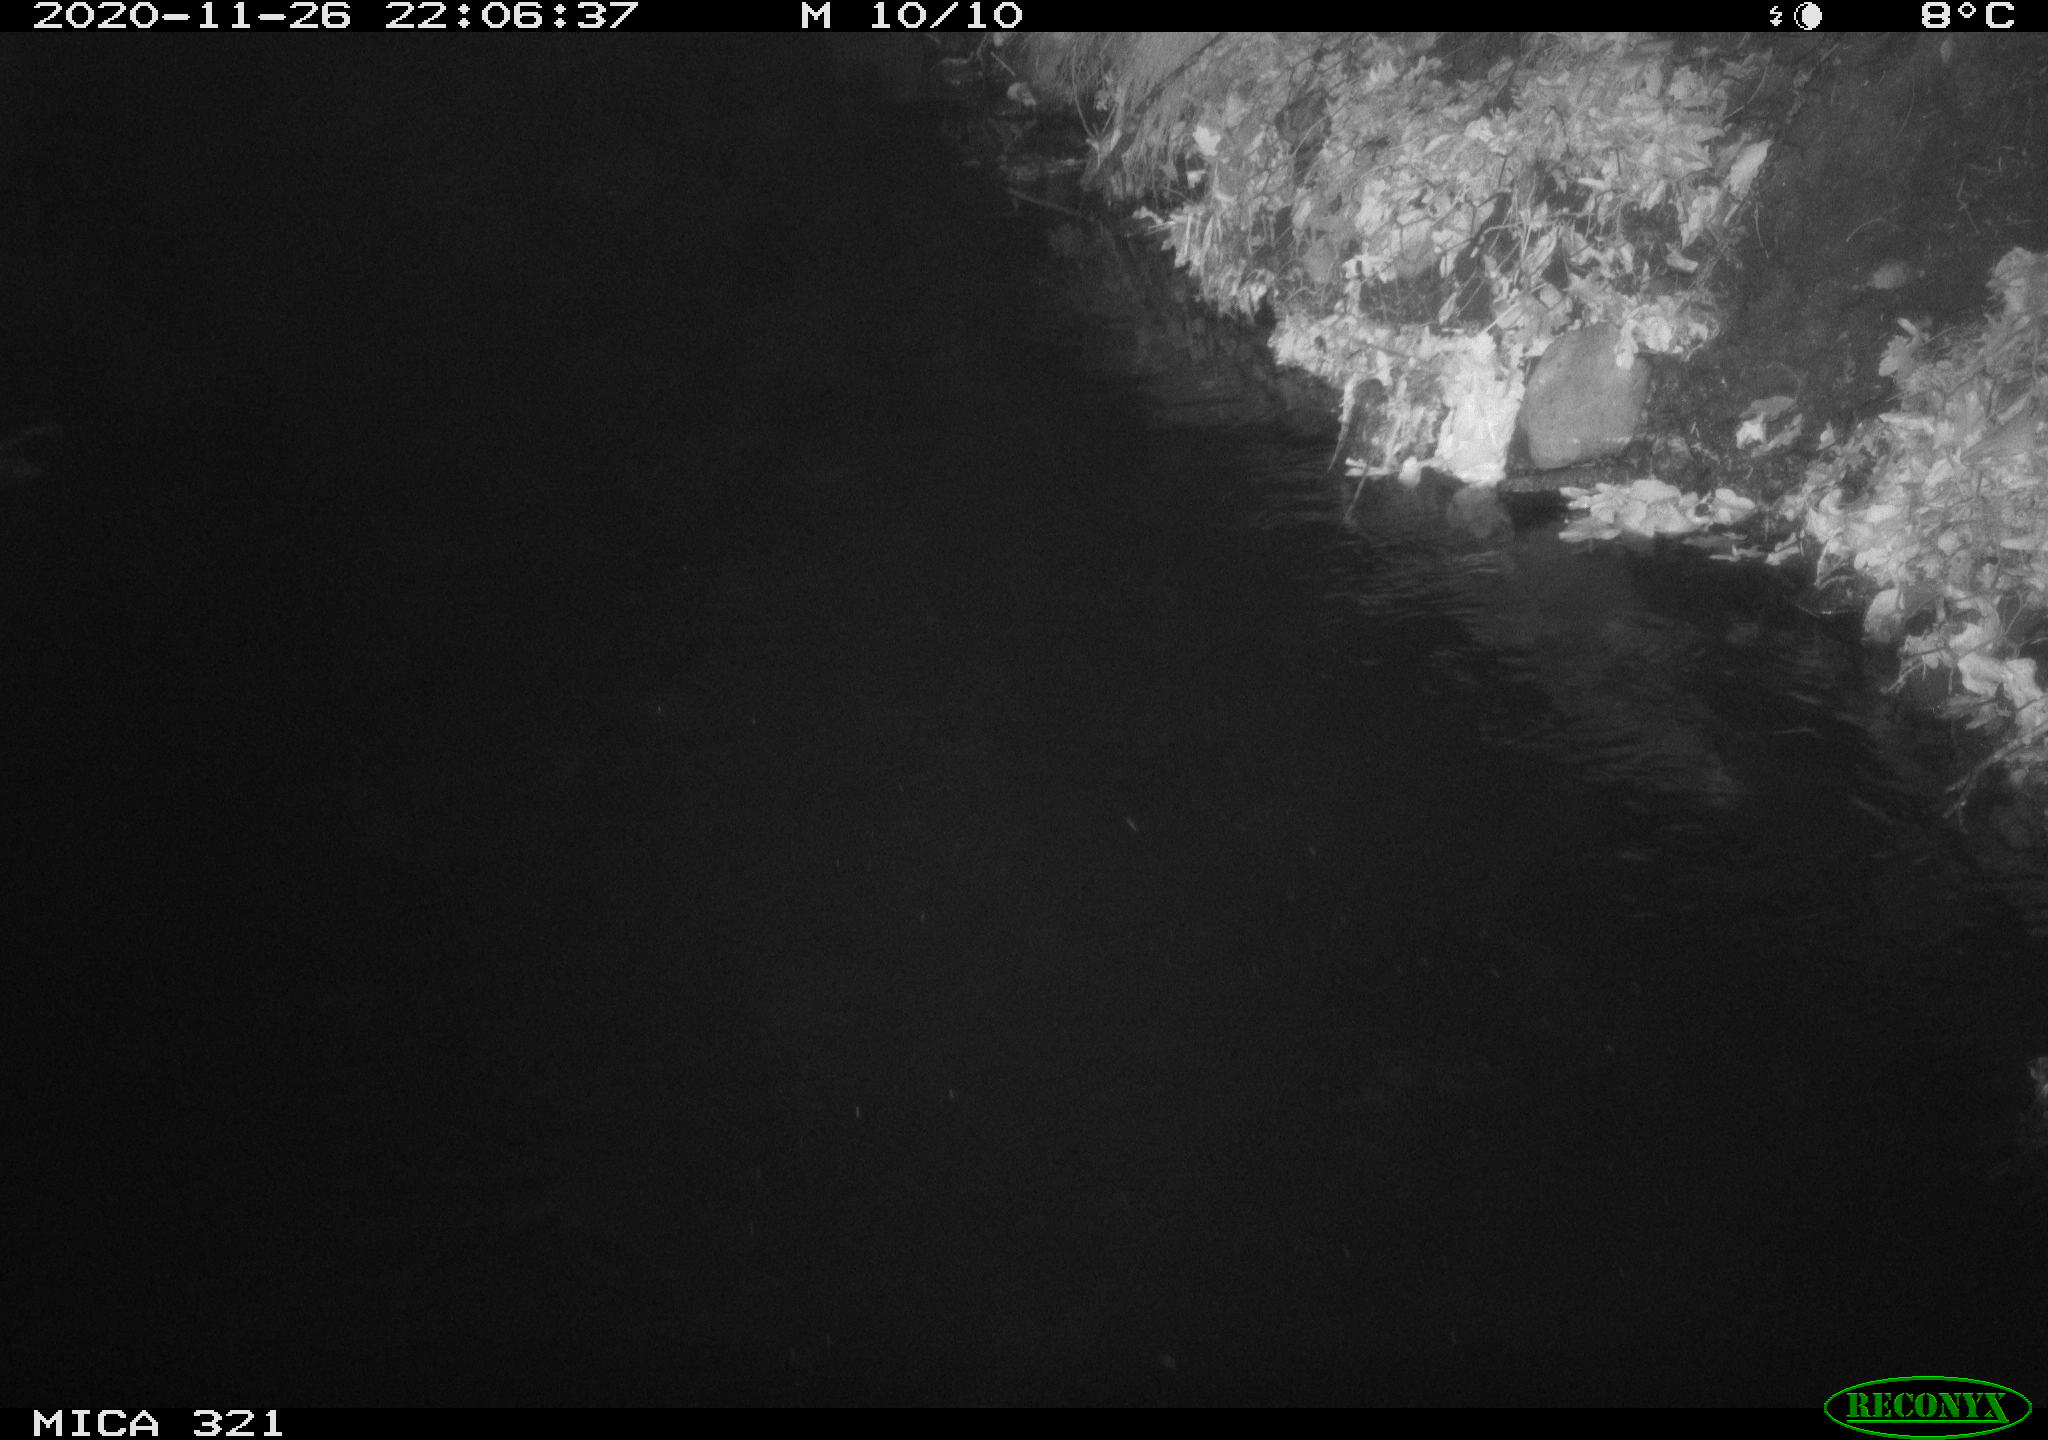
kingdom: Animalia
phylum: Chordata
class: Aves
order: Anseriformes
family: Anatidae
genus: Anas
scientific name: Anas platyrhynchos
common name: Mallard
